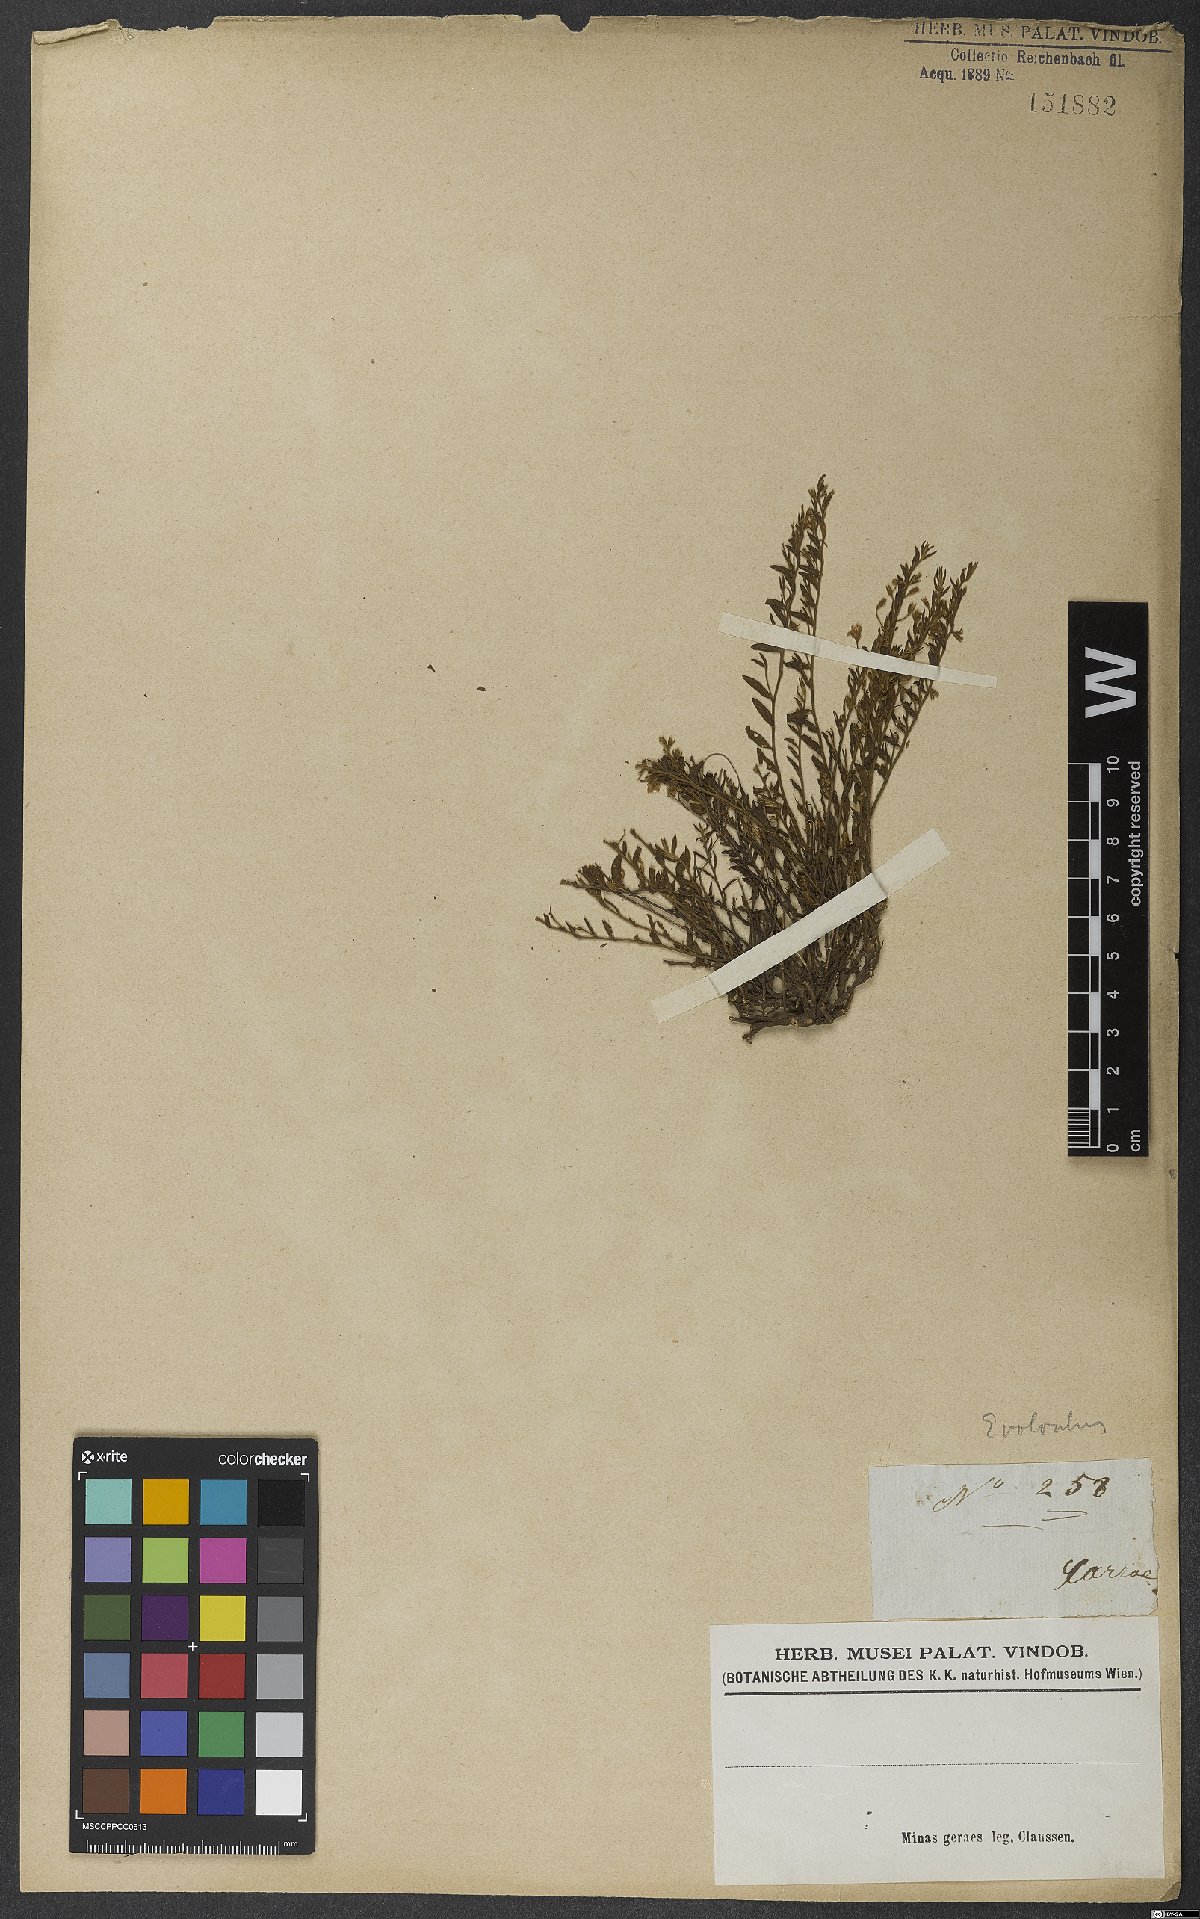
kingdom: Plantae
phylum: Tracheophyta
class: Magnoliopsida
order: Solanales
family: Convolvulaceae
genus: Evolvulus
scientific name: Evolvulus
